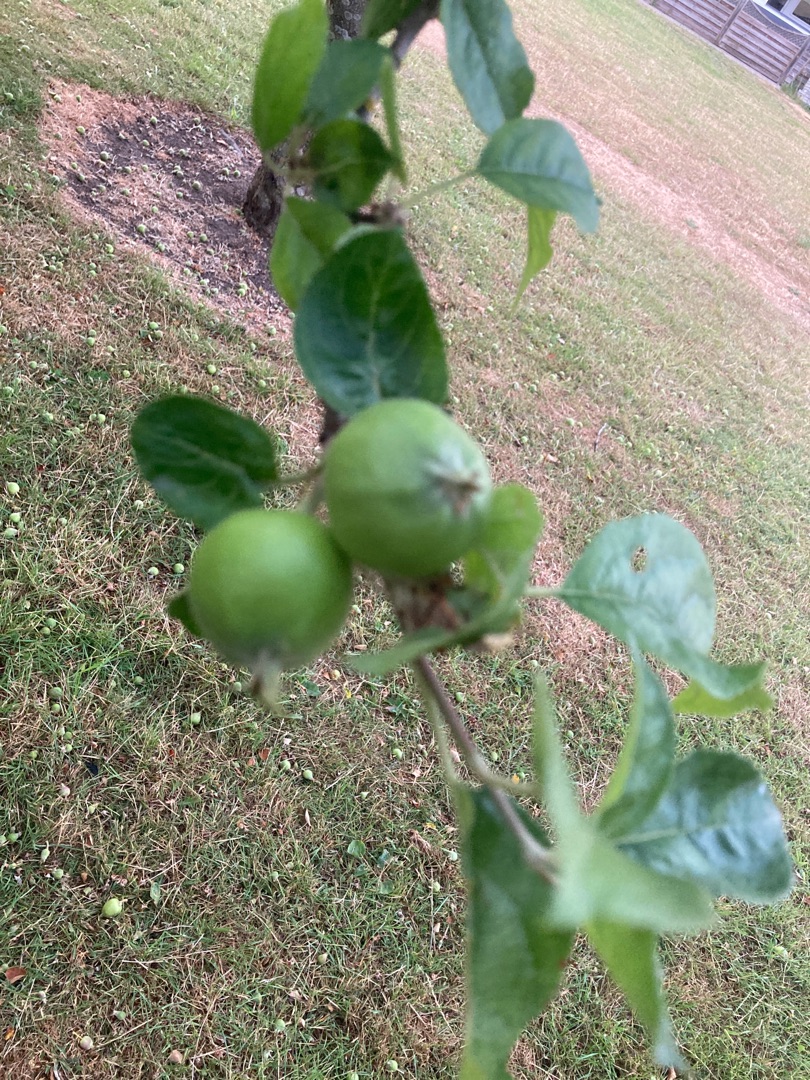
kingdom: Plantae
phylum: Tracheophyta
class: Magnoliopsida
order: Rosales
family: Rosaceae
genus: Malus
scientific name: Malus
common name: Æbleslægten
